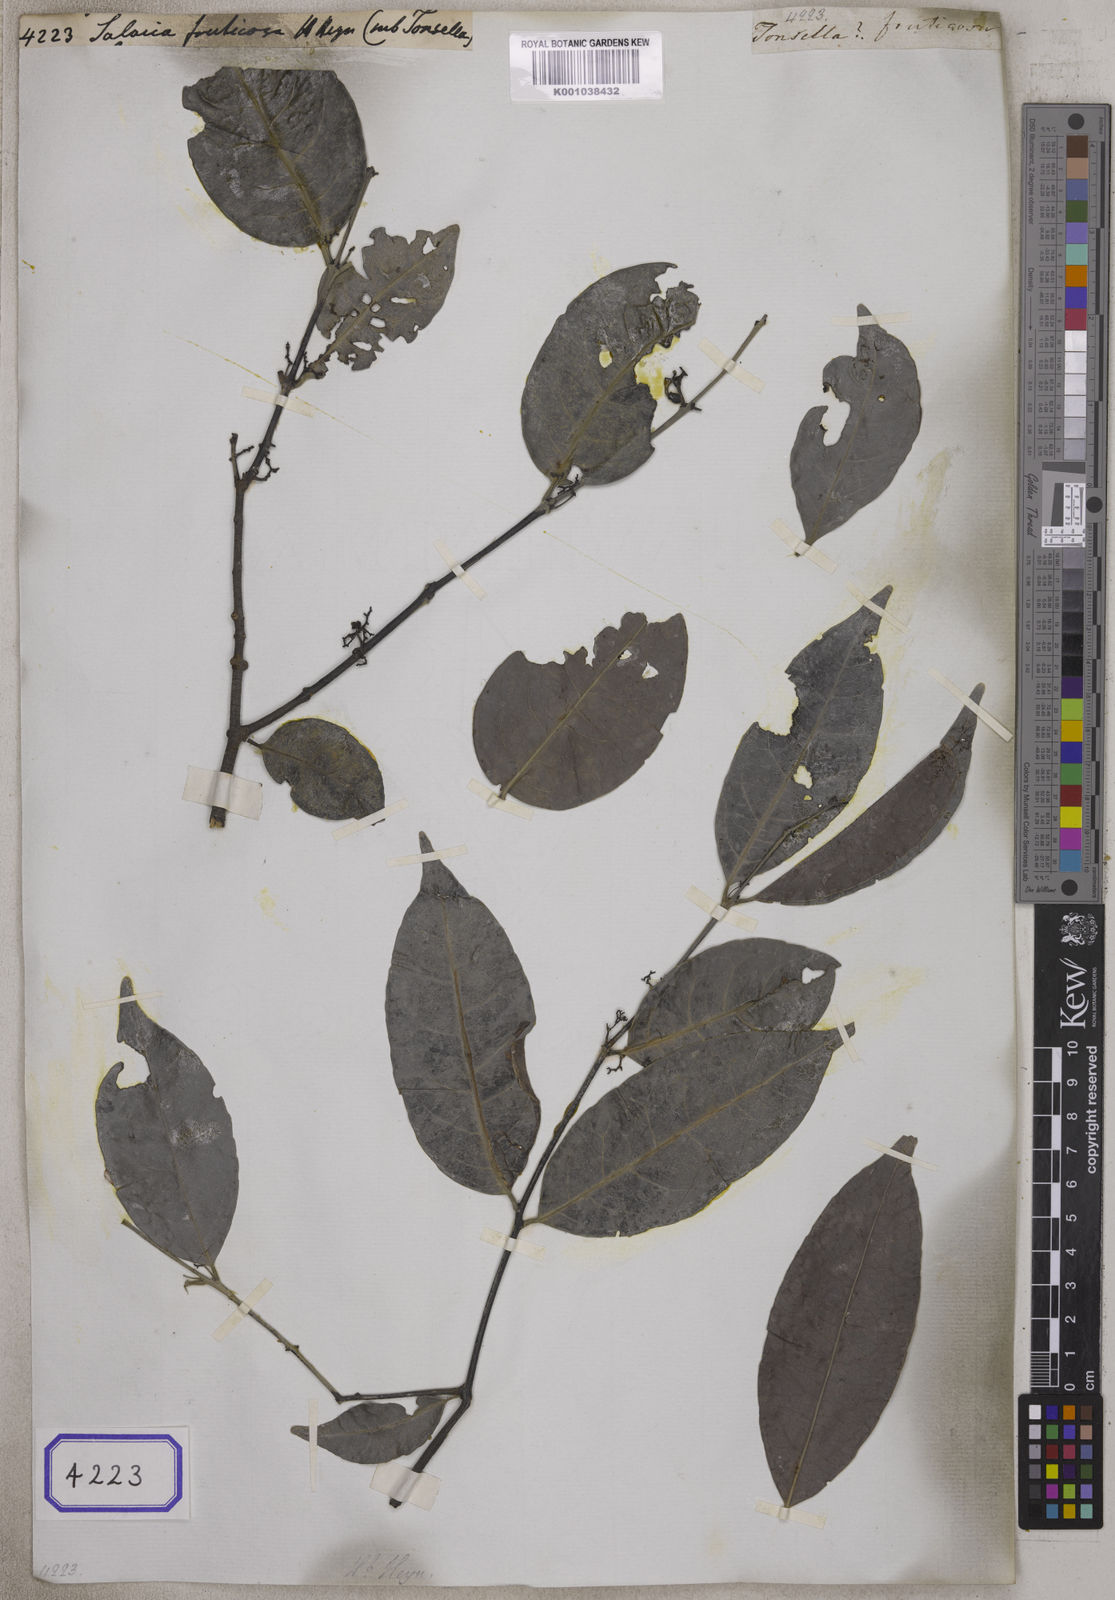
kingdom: Plantae
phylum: Tracheophyta
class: Magnoliopsida
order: Celastrales
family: Celastraceae
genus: Salacia
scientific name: Salacia
